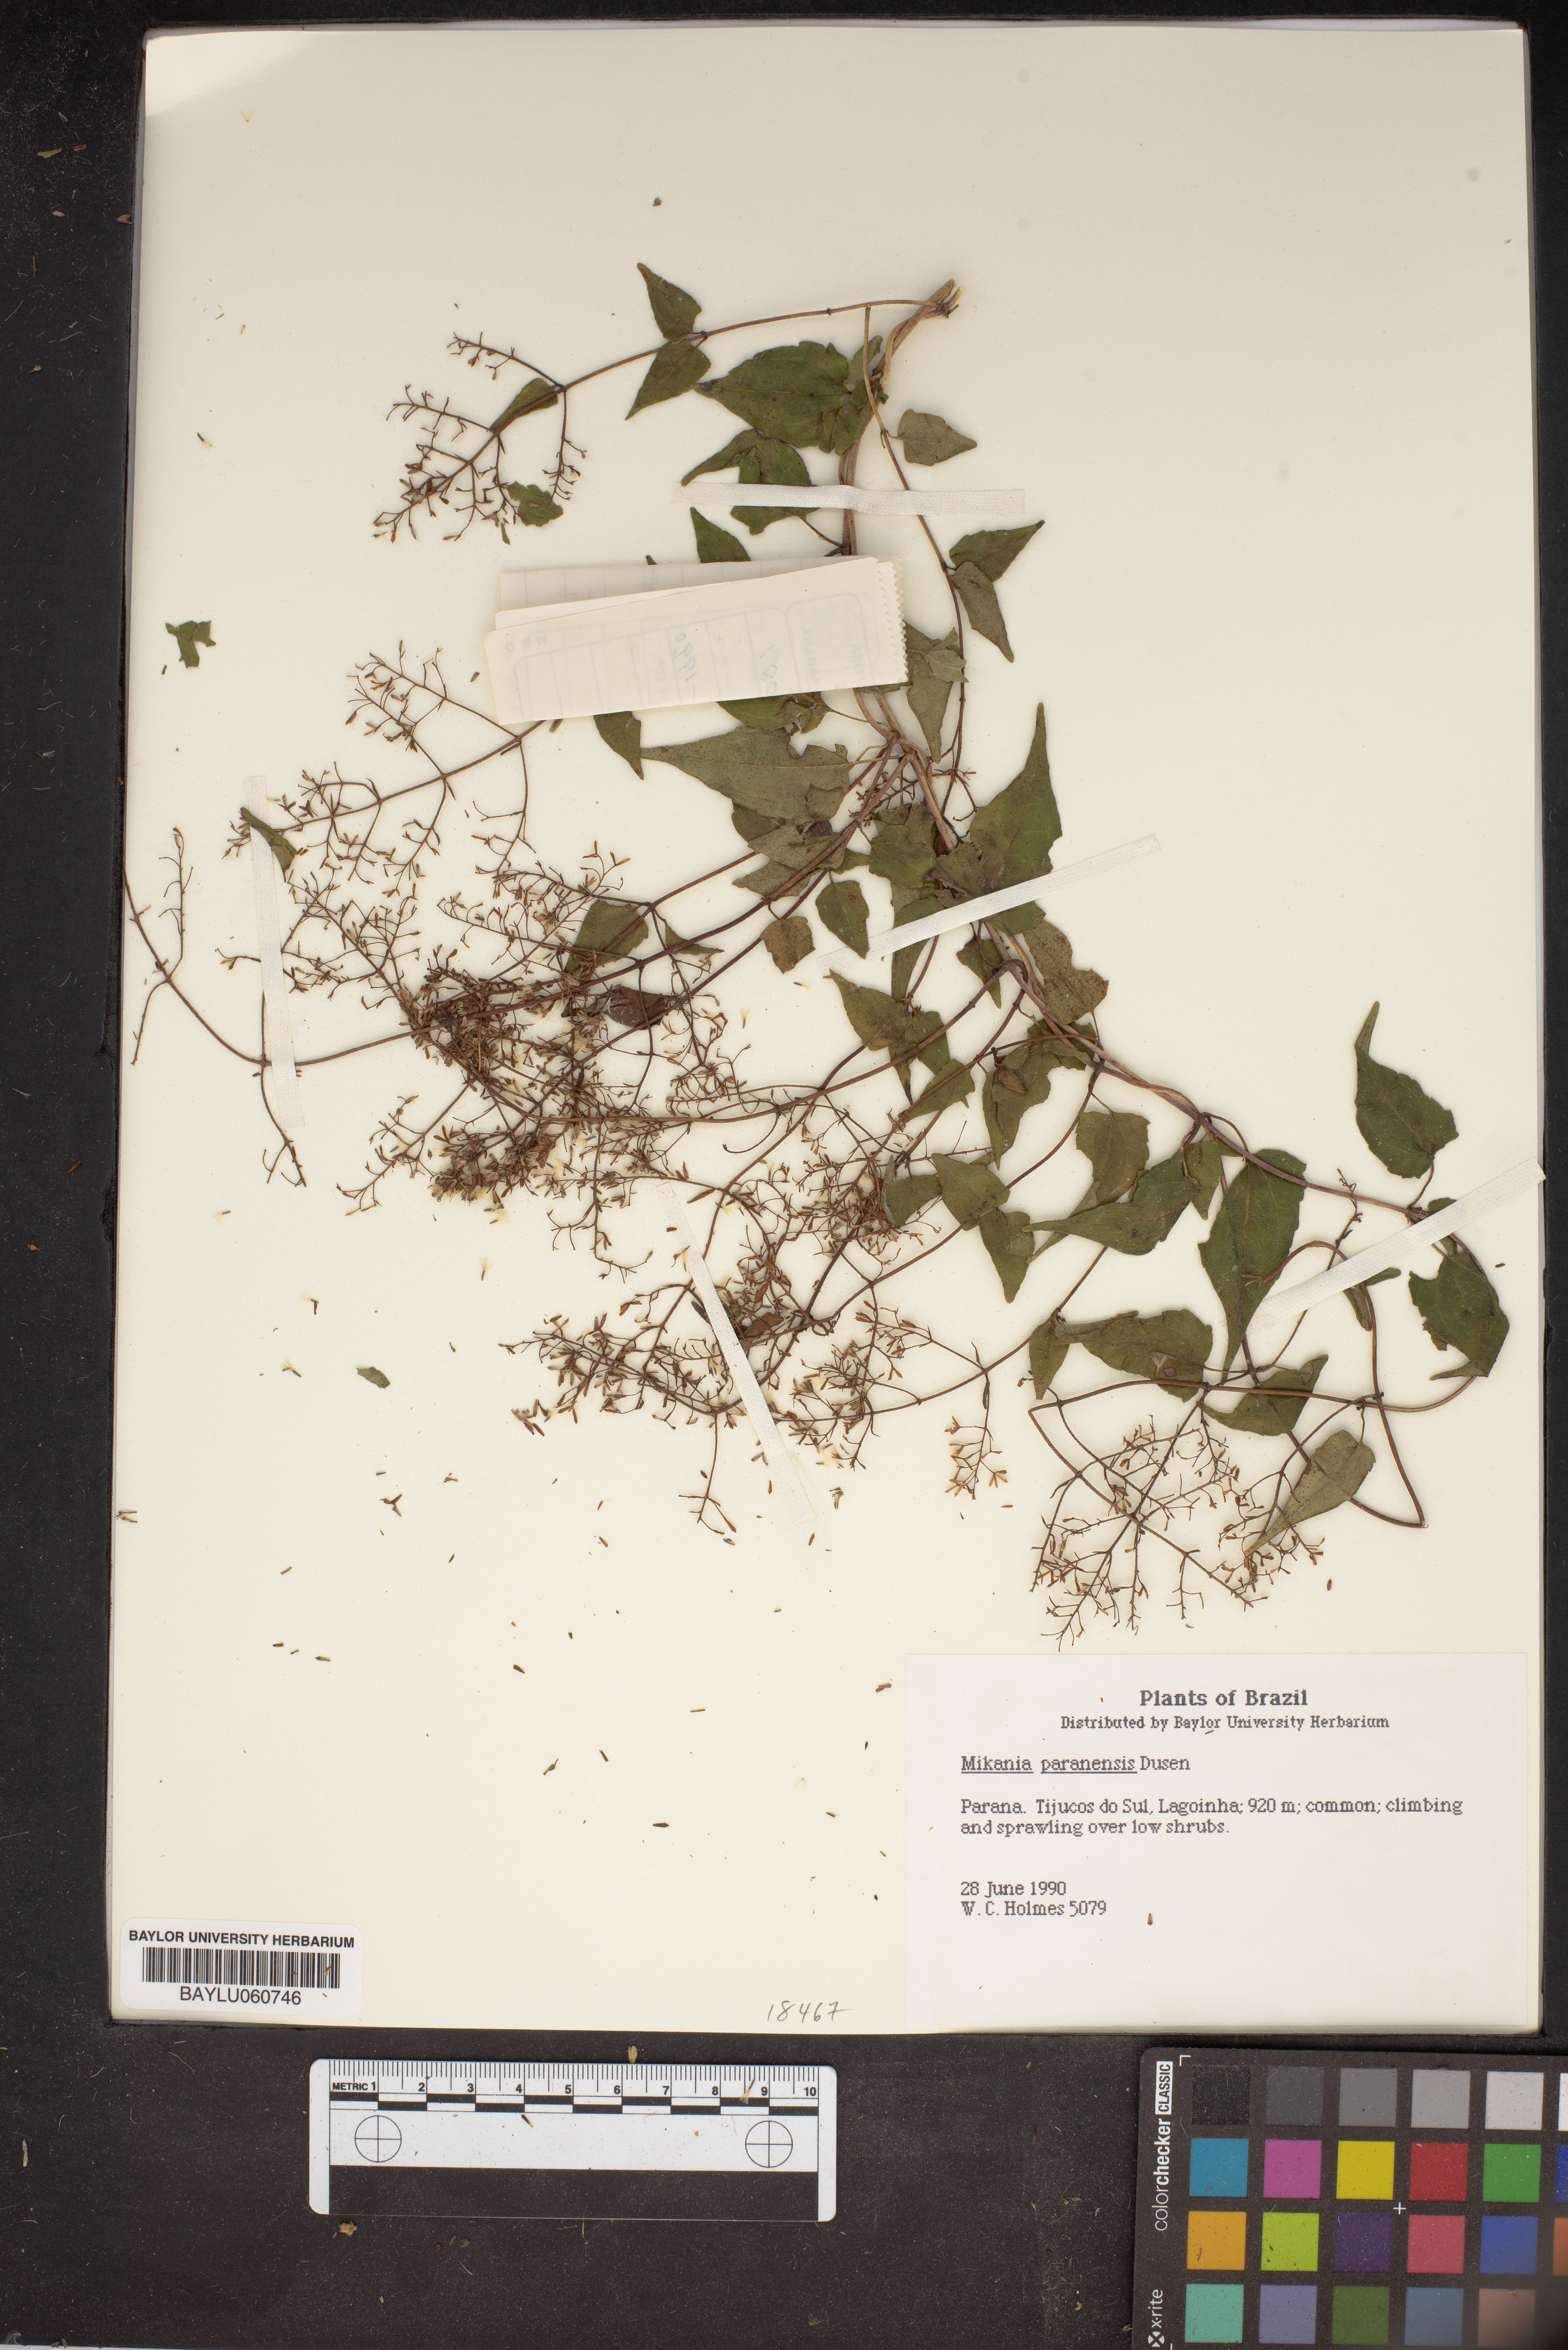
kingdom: Plantae
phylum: Tracheophyta
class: Magnoliopsida
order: Asterales
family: Asteraceae
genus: Mikania
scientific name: Mikania paranensis
